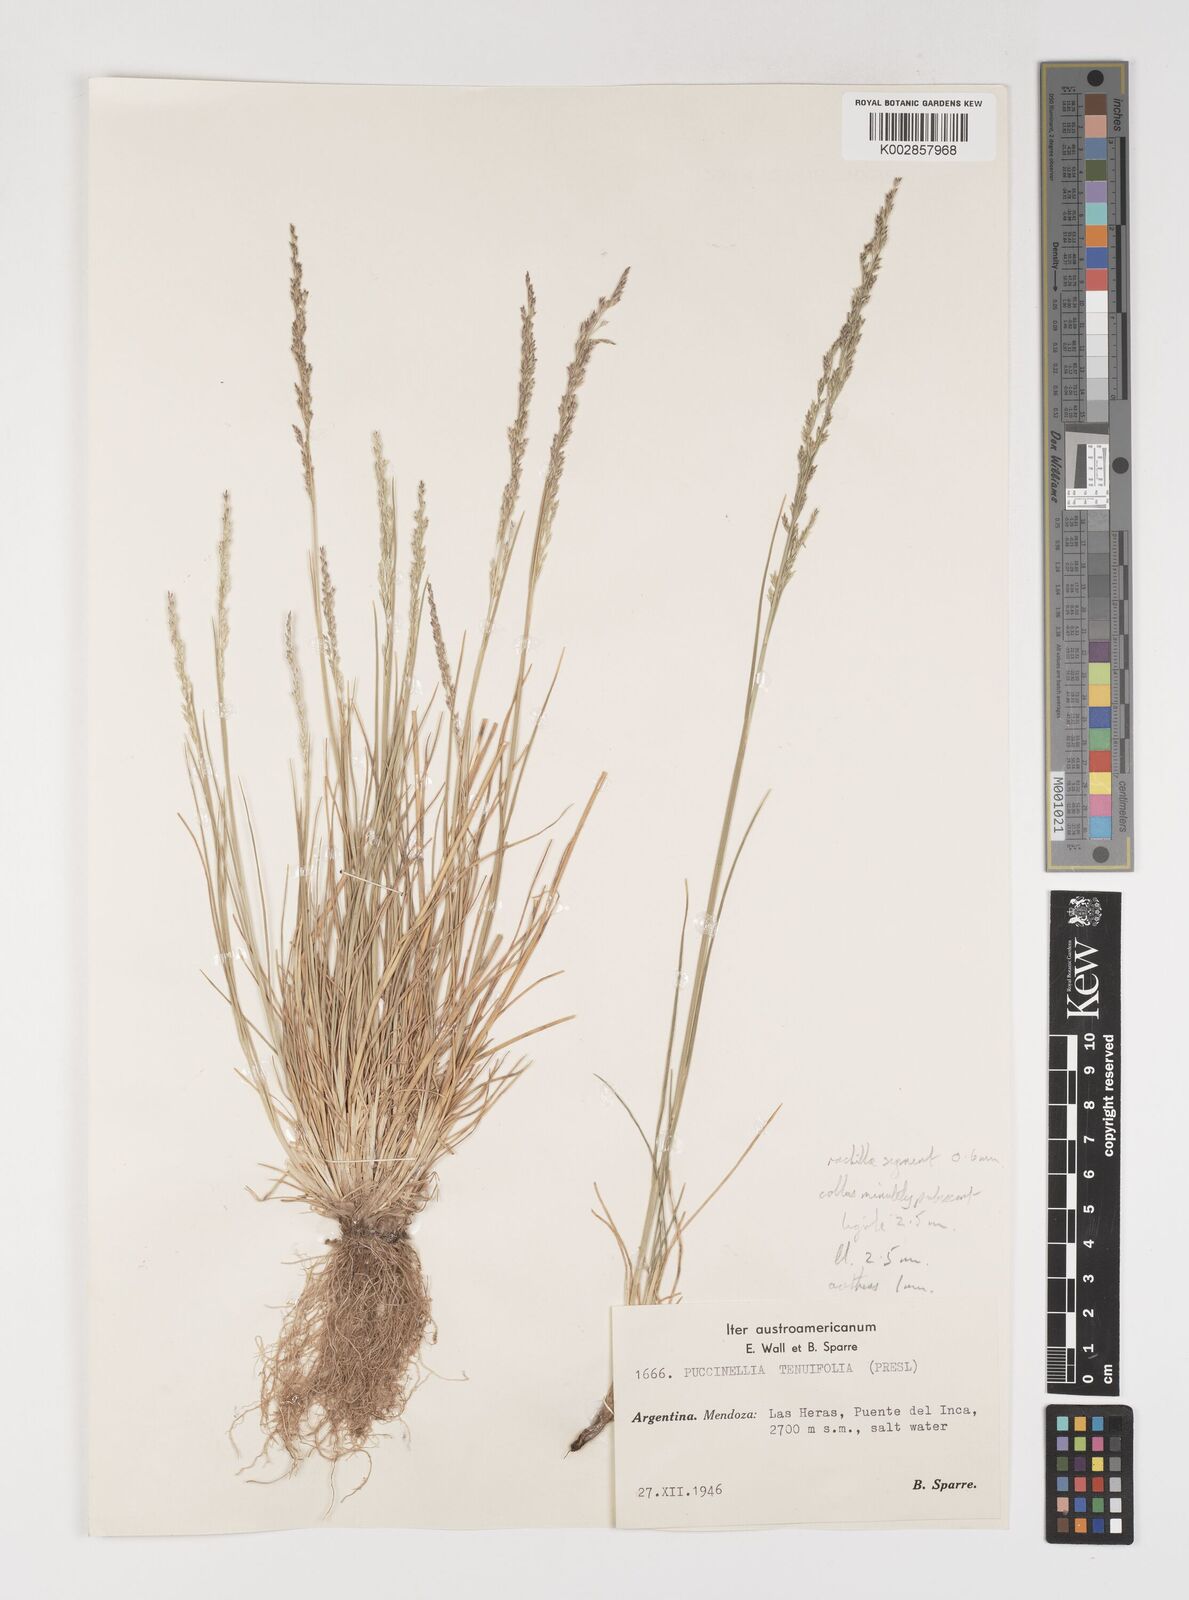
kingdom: Plantae
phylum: Tracheophyta
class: Liliopsida
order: Poales
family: Poaceae
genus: Puccinellia
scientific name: Puccinellia mendozina
